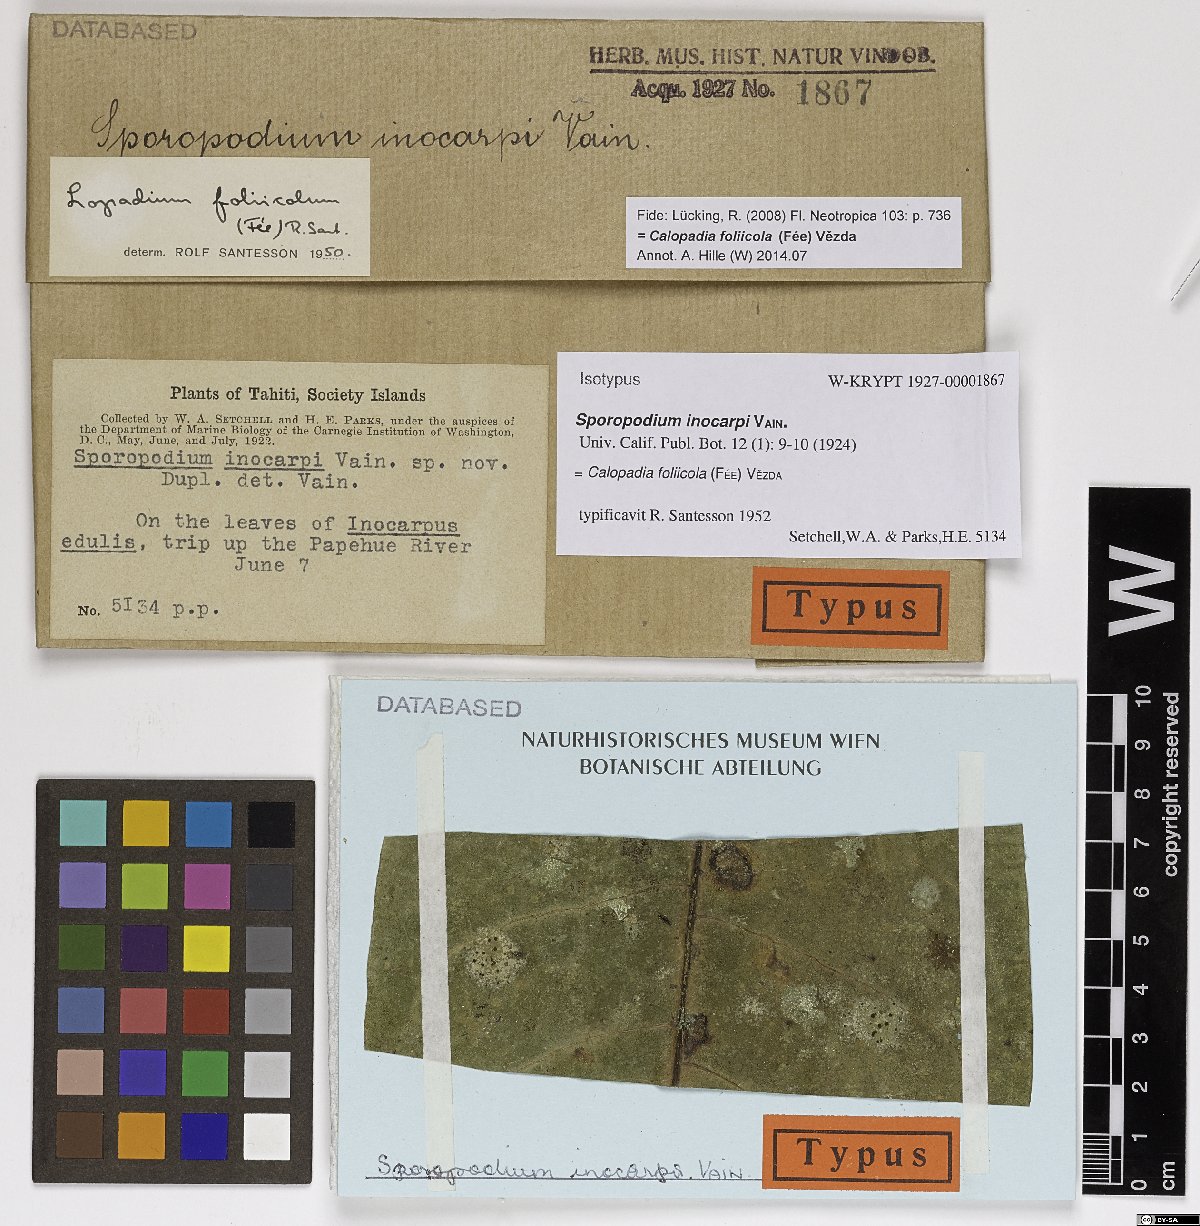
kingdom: Fungi
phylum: Ascomycota
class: Lecanoromycetes
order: Lecanorales
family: Byssolomataceae
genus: Sporopodium
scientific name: Sporopodium inocarpi
